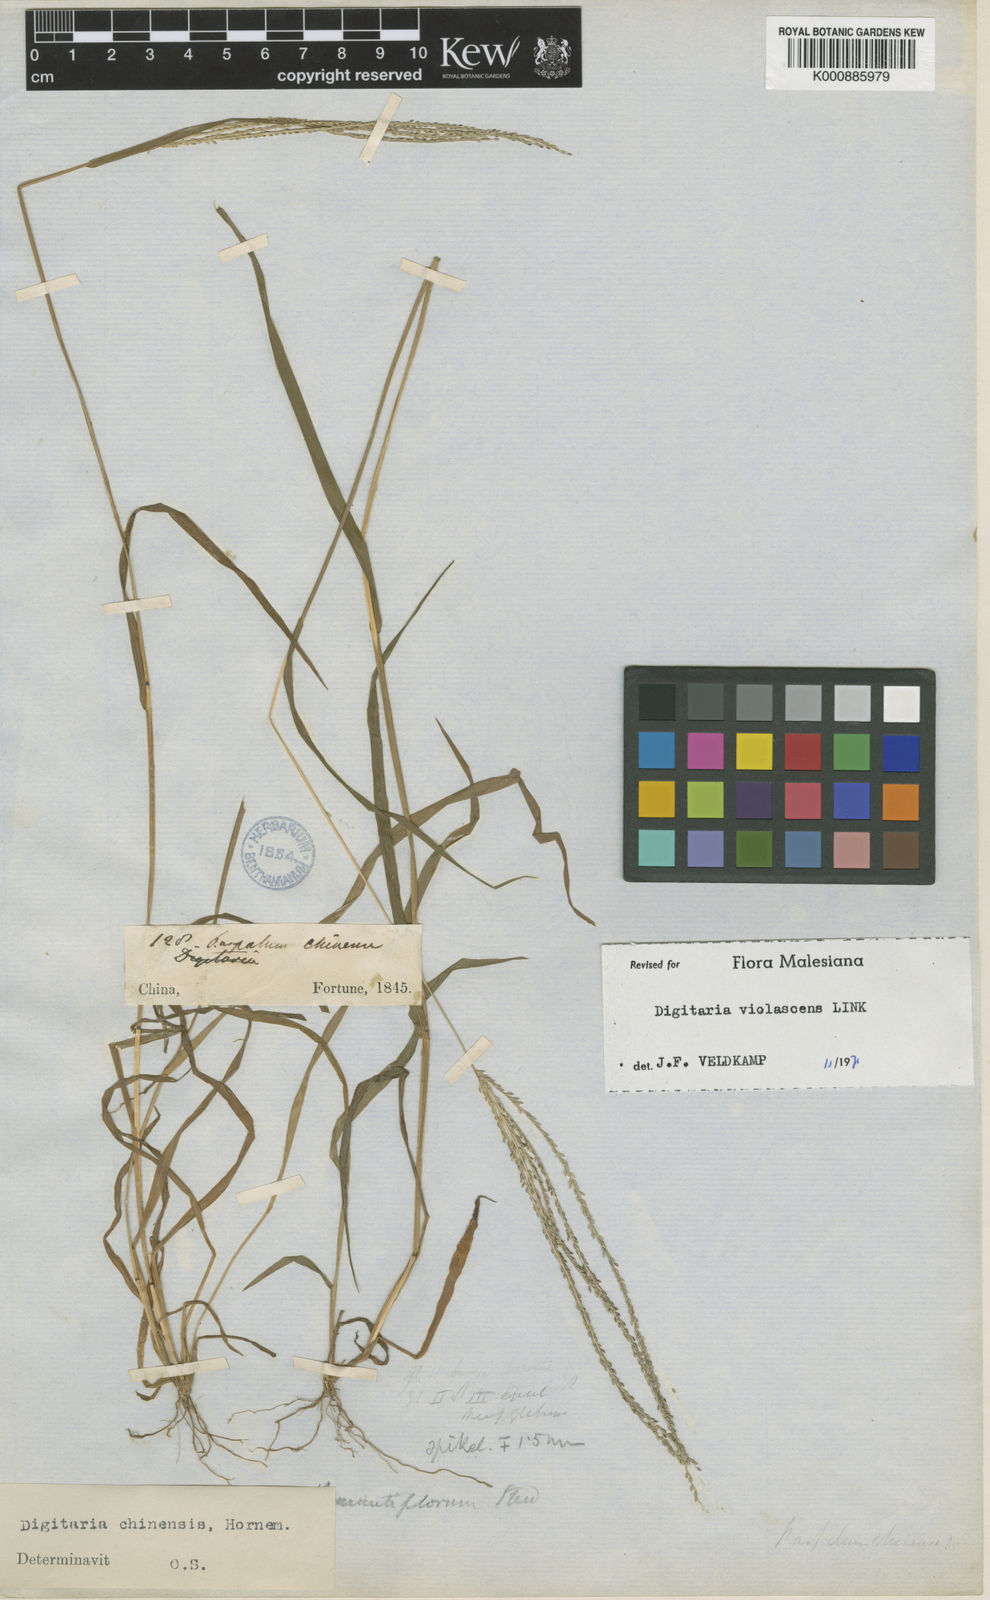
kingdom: Plantae
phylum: Tracheophyta
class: Liliopsida
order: Poales
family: Poaceae
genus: Digitaria
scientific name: Digitaria violascens
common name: Violet crabgrass
